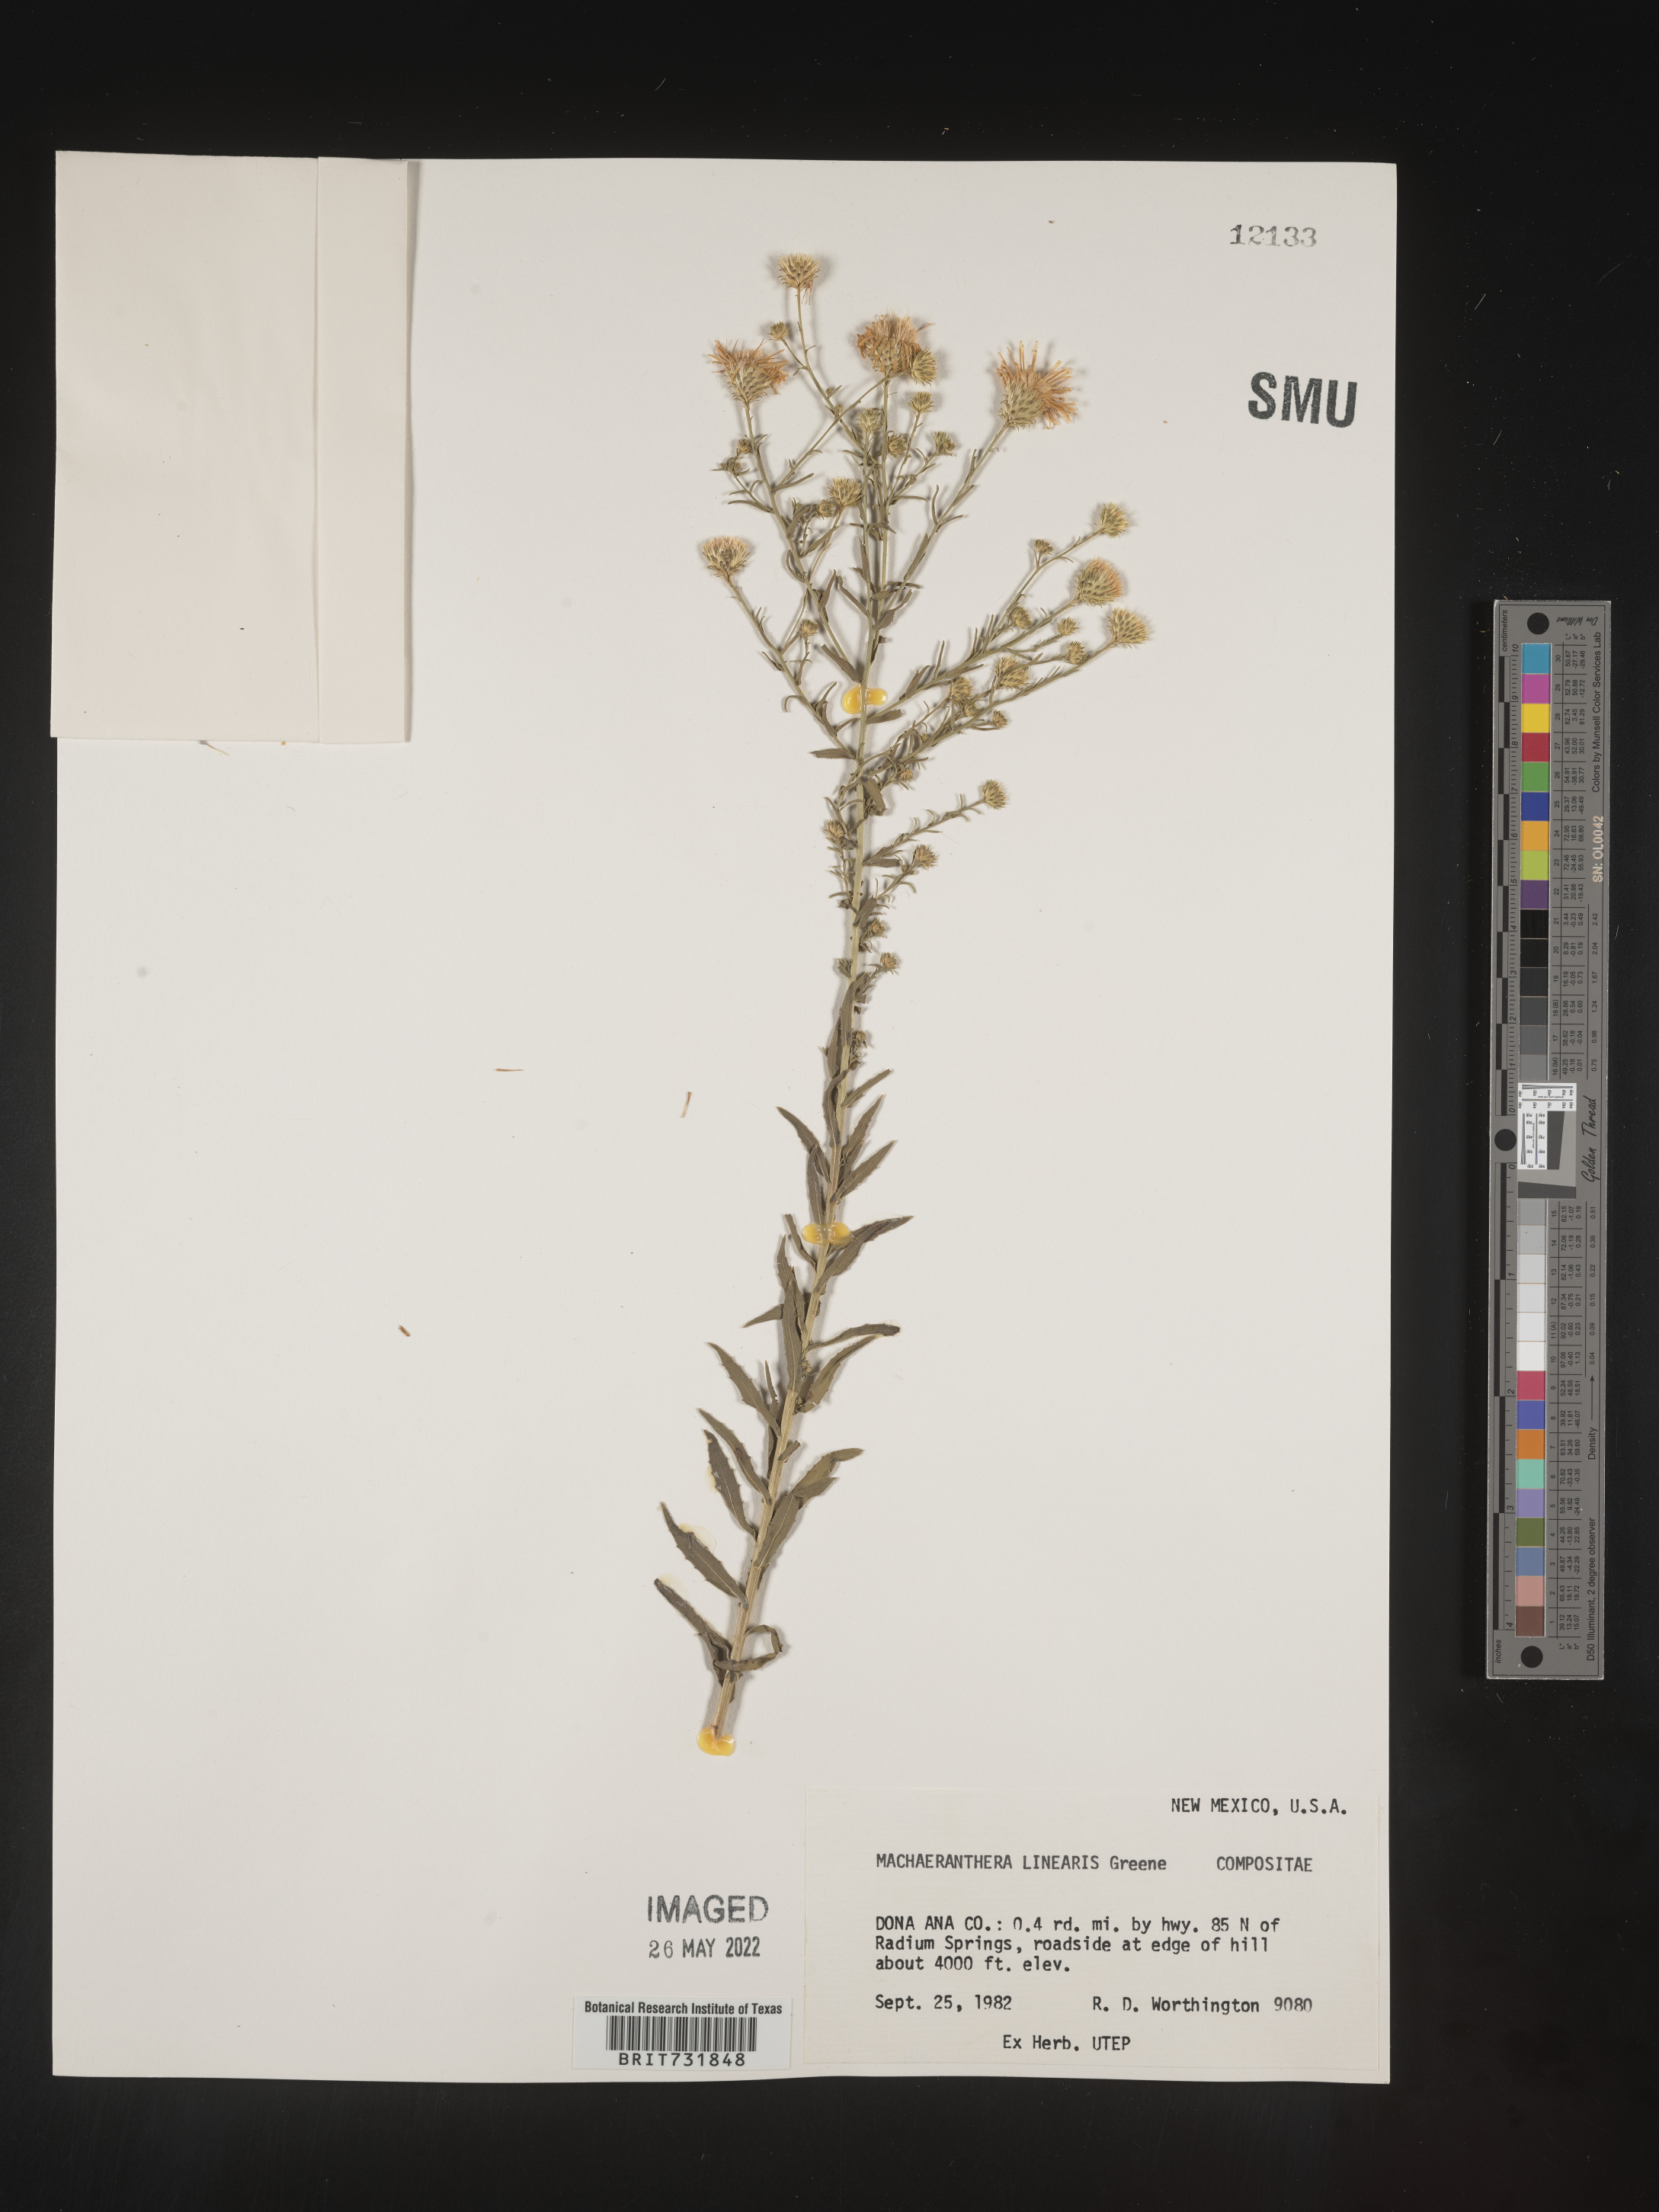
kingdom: Plantae
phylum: Tracheophyta
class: Magnoliopsida
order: Asterales
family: Asteraceae
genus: Dieteria
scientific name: Dieteria canescens
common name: Hoary-aster
